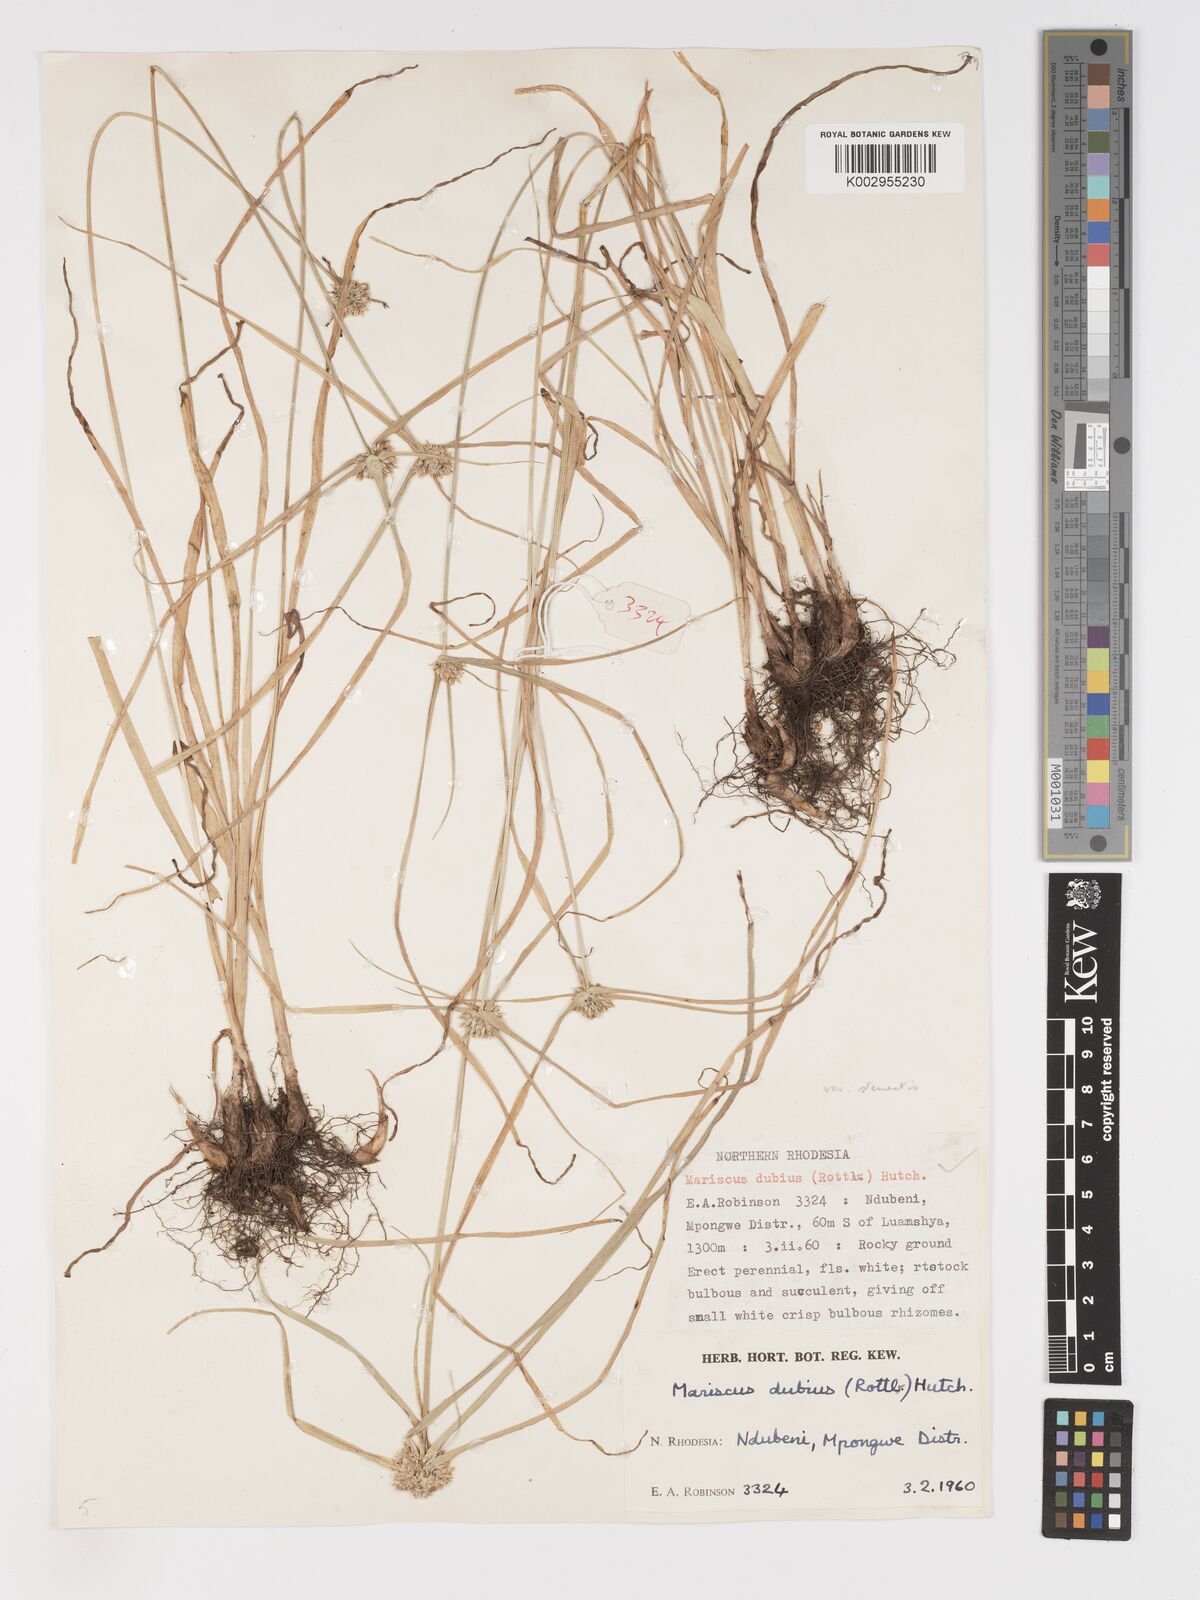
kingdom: Plantae
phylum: Tracheophyta
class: Liliopsida
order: Poales
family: Cyperaceae
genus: Cyperus
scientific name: Cyperus
